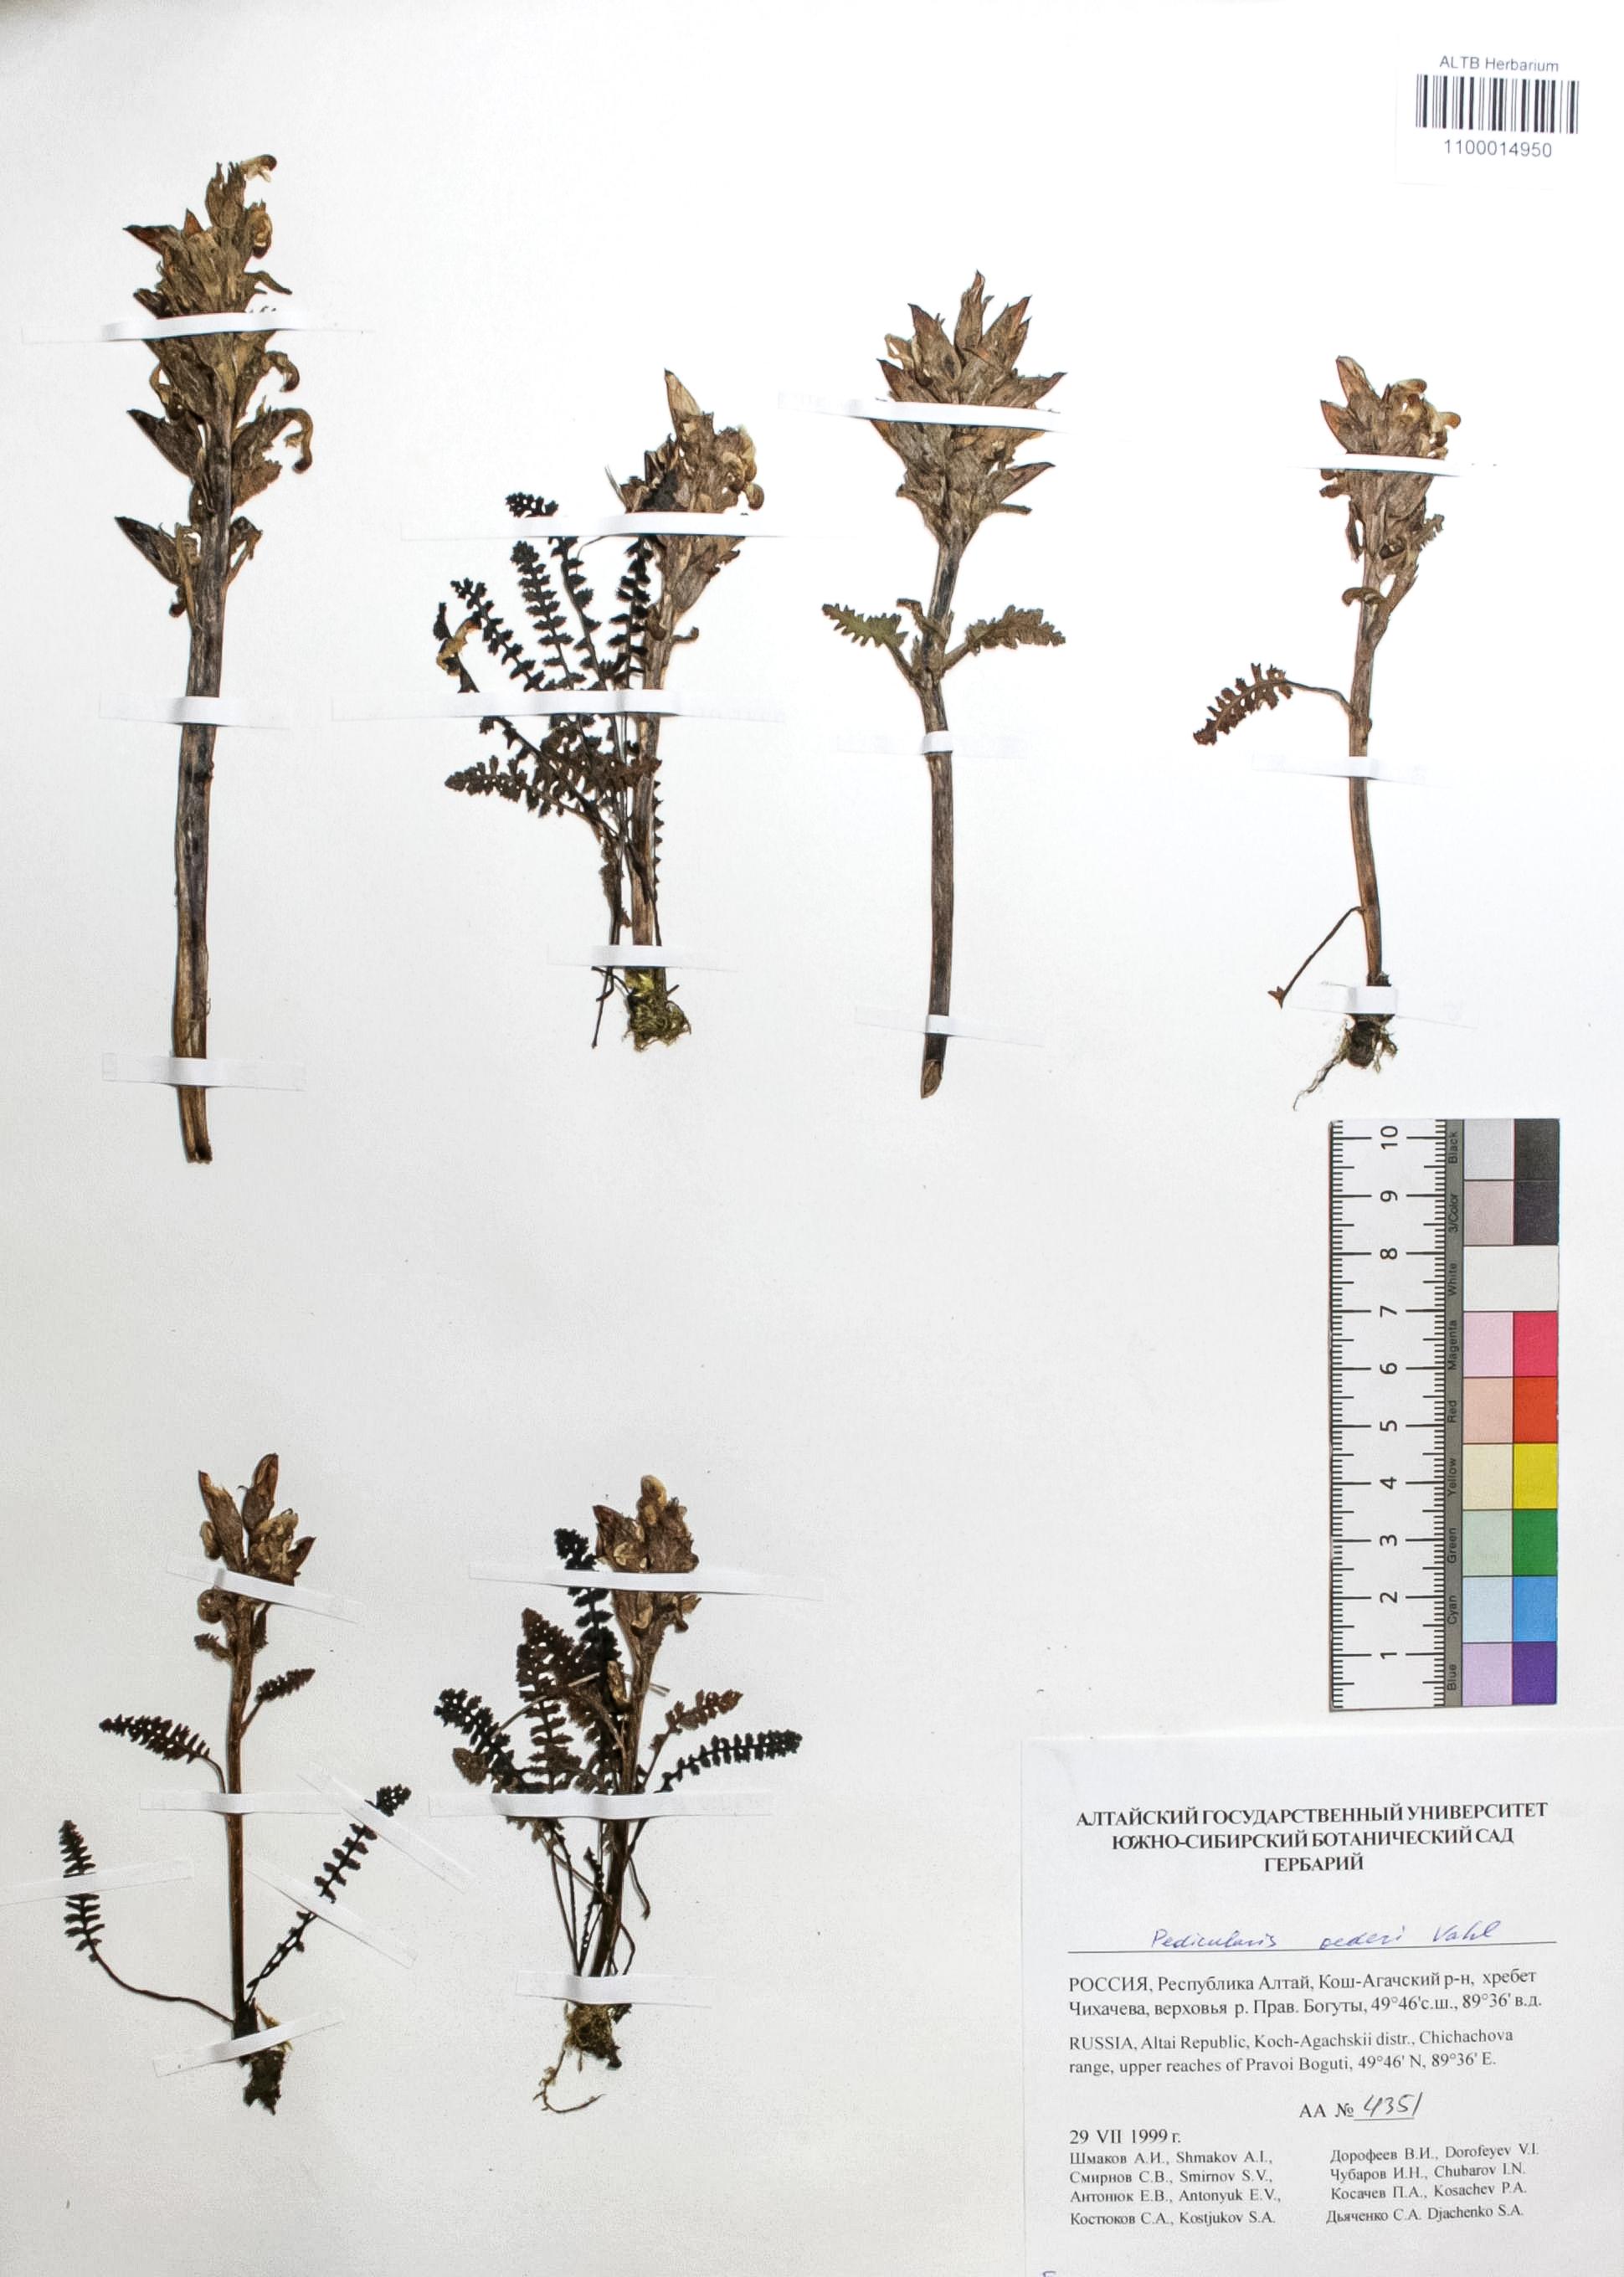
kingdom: Plantae
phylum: Tracheophyta
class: Magnoliopsida
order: Caryophyllales
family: Caryophyllaceae
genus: Silene
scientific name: Silene graminifolia
